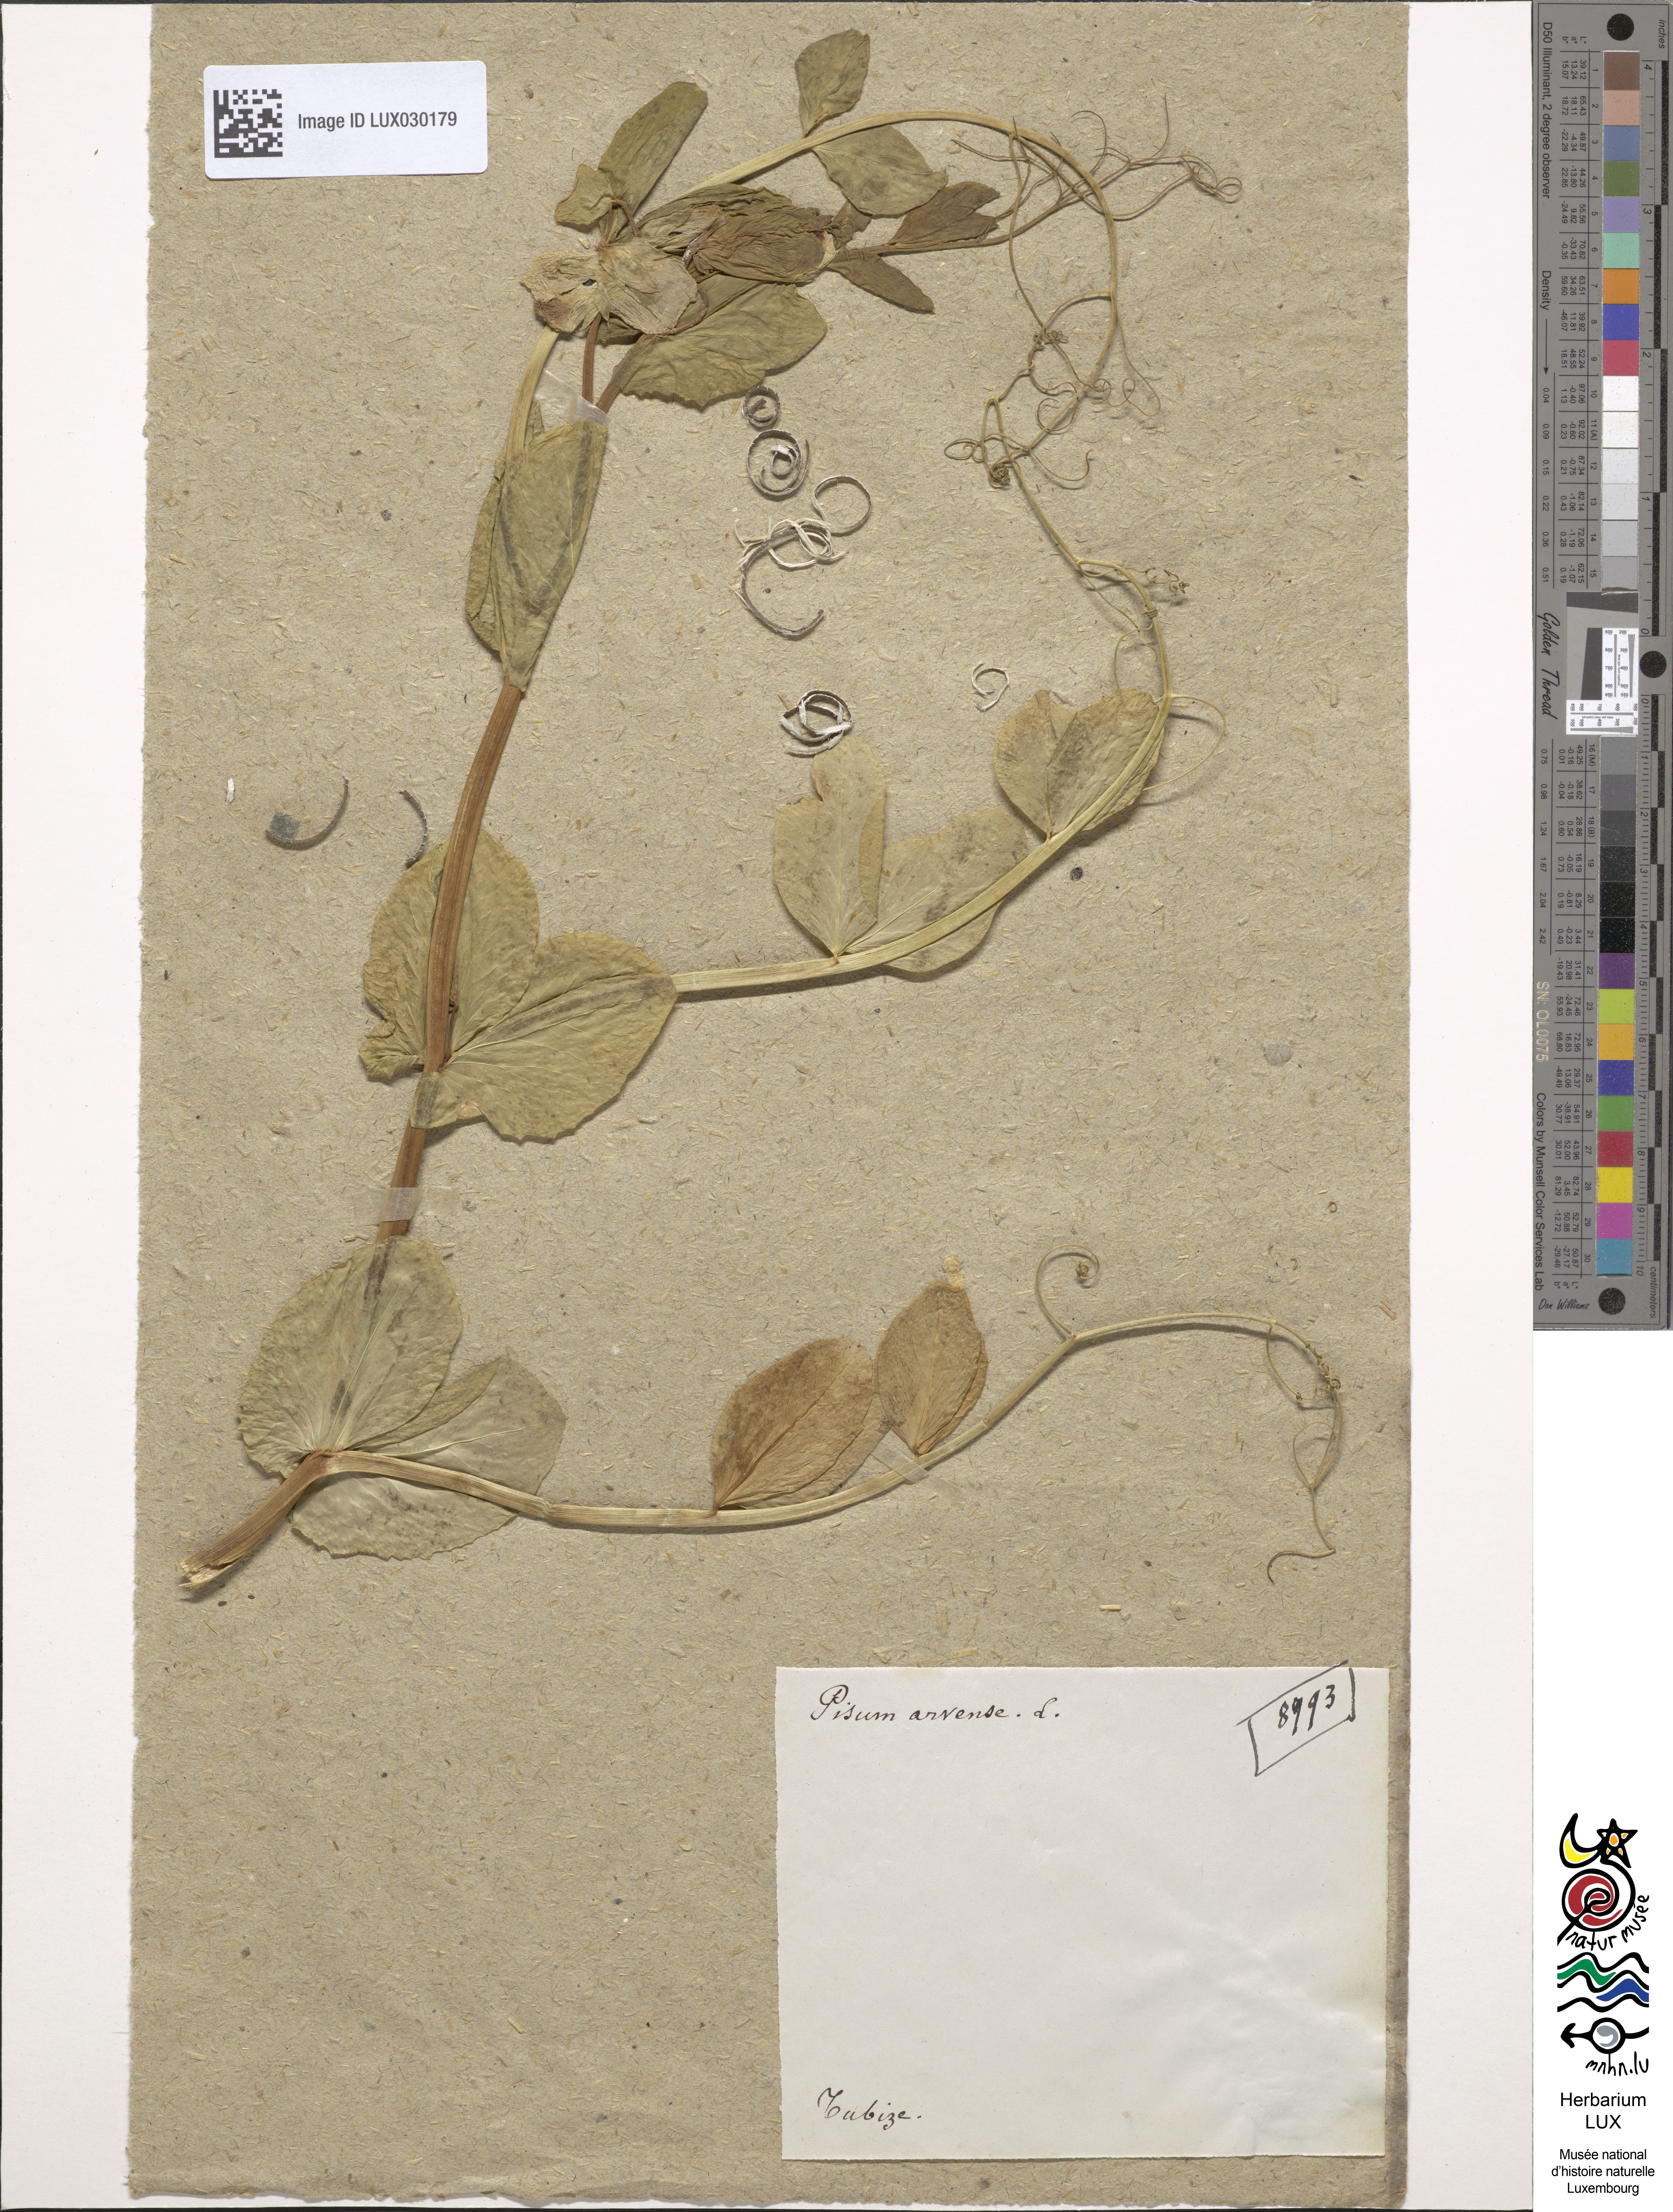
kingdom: Plantae
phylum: Tracheophyta
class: Magnoliopsida
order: Fabales
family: Fabaceae
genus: Lathyrus
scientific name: Lathyrus oleraceus
